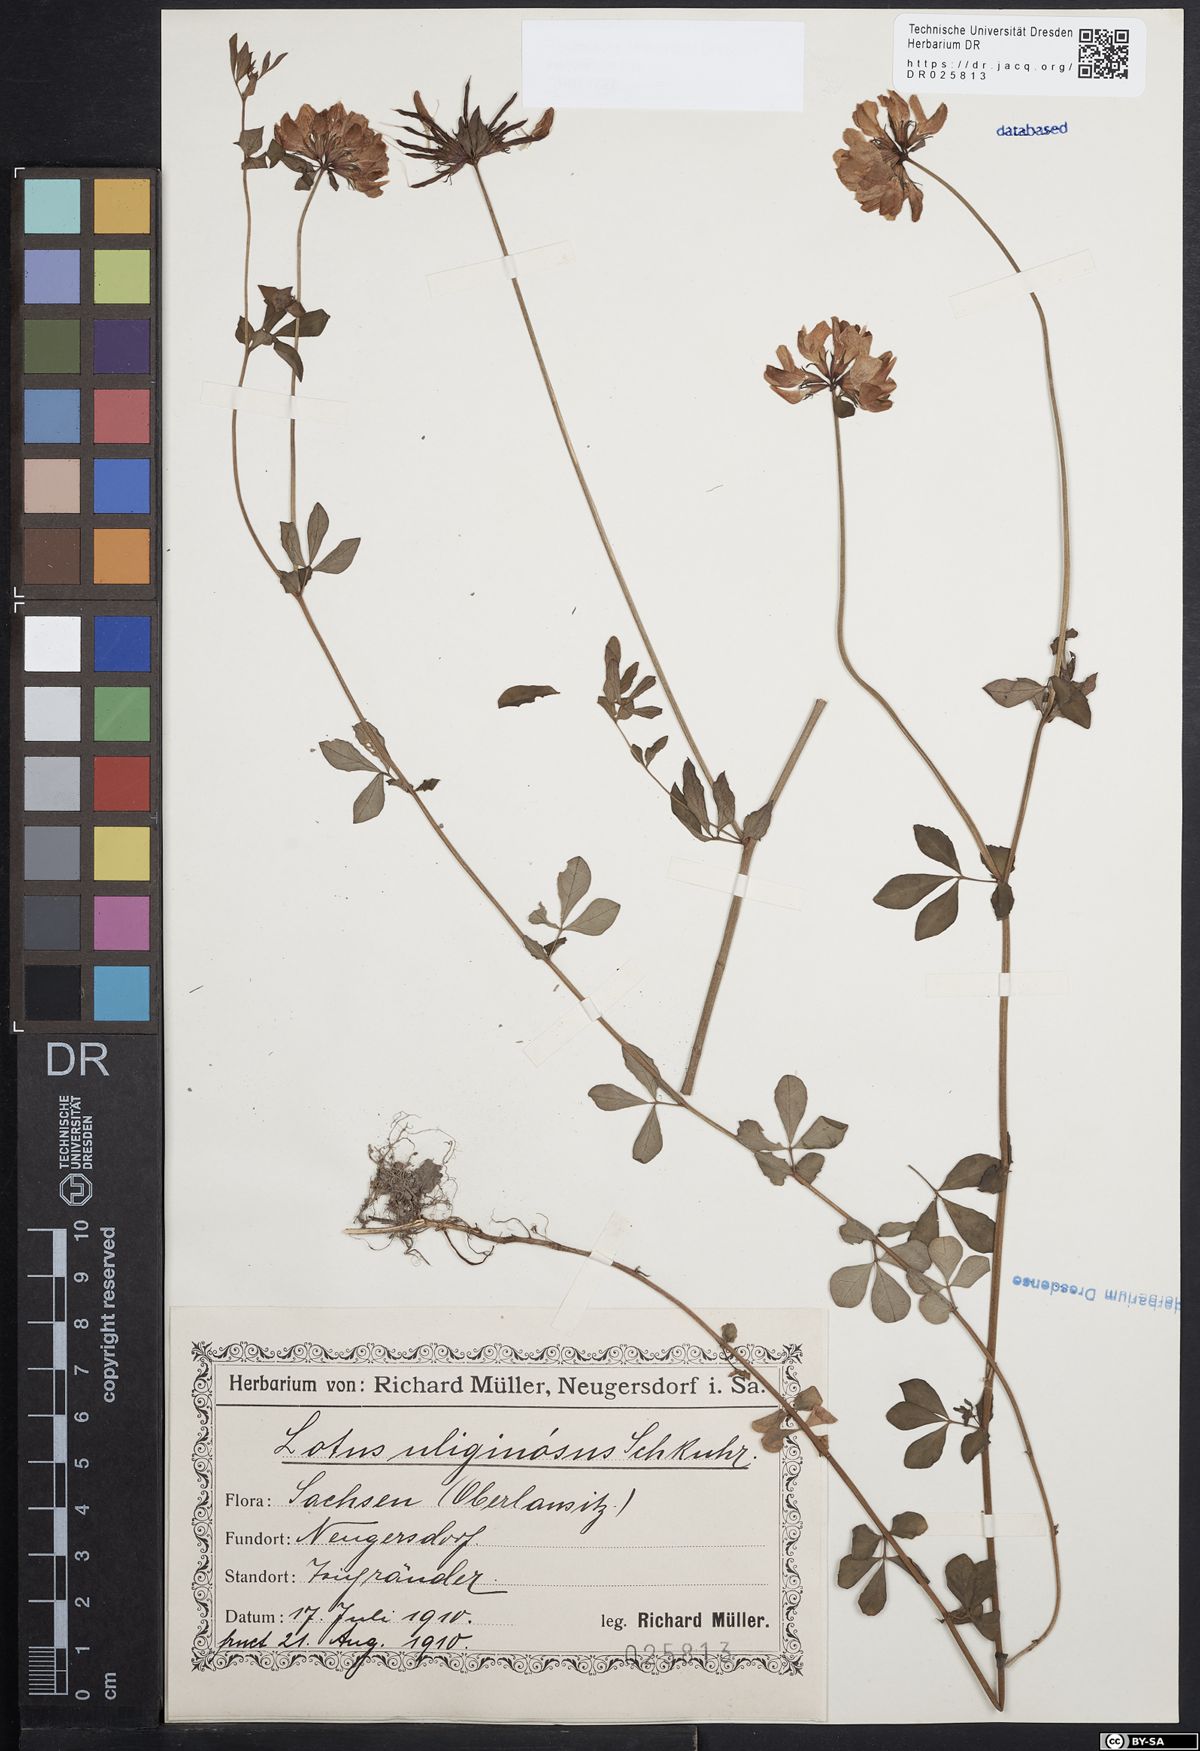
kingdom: Plantae
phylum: Tracheophyta
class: Magnoliopsida
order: Fabales
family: Fabaceae
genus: Lotus
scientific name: Lotus pedunculatus
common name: Greater birdsfoot-trefoil
